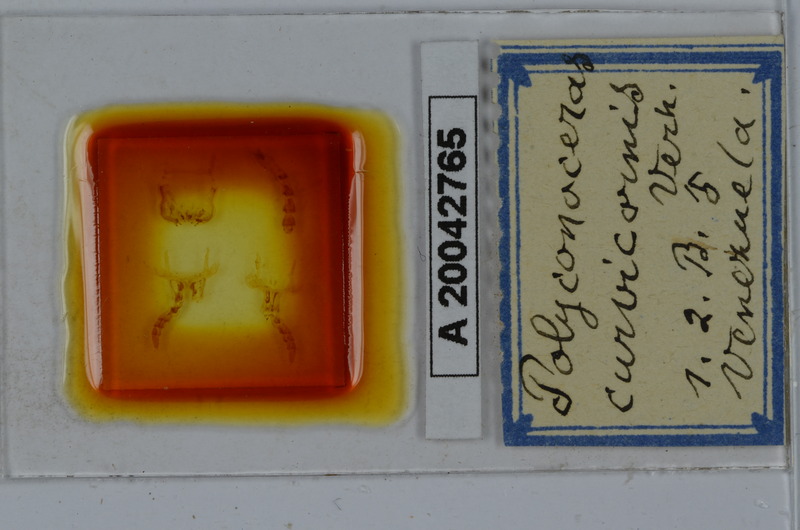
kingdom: Animalia
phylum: Arthropoda
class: Diplopoda
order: Spirobolida
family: Rhinocricidae
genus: Salpidobolus
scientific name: Salpidobolus curvicornis
